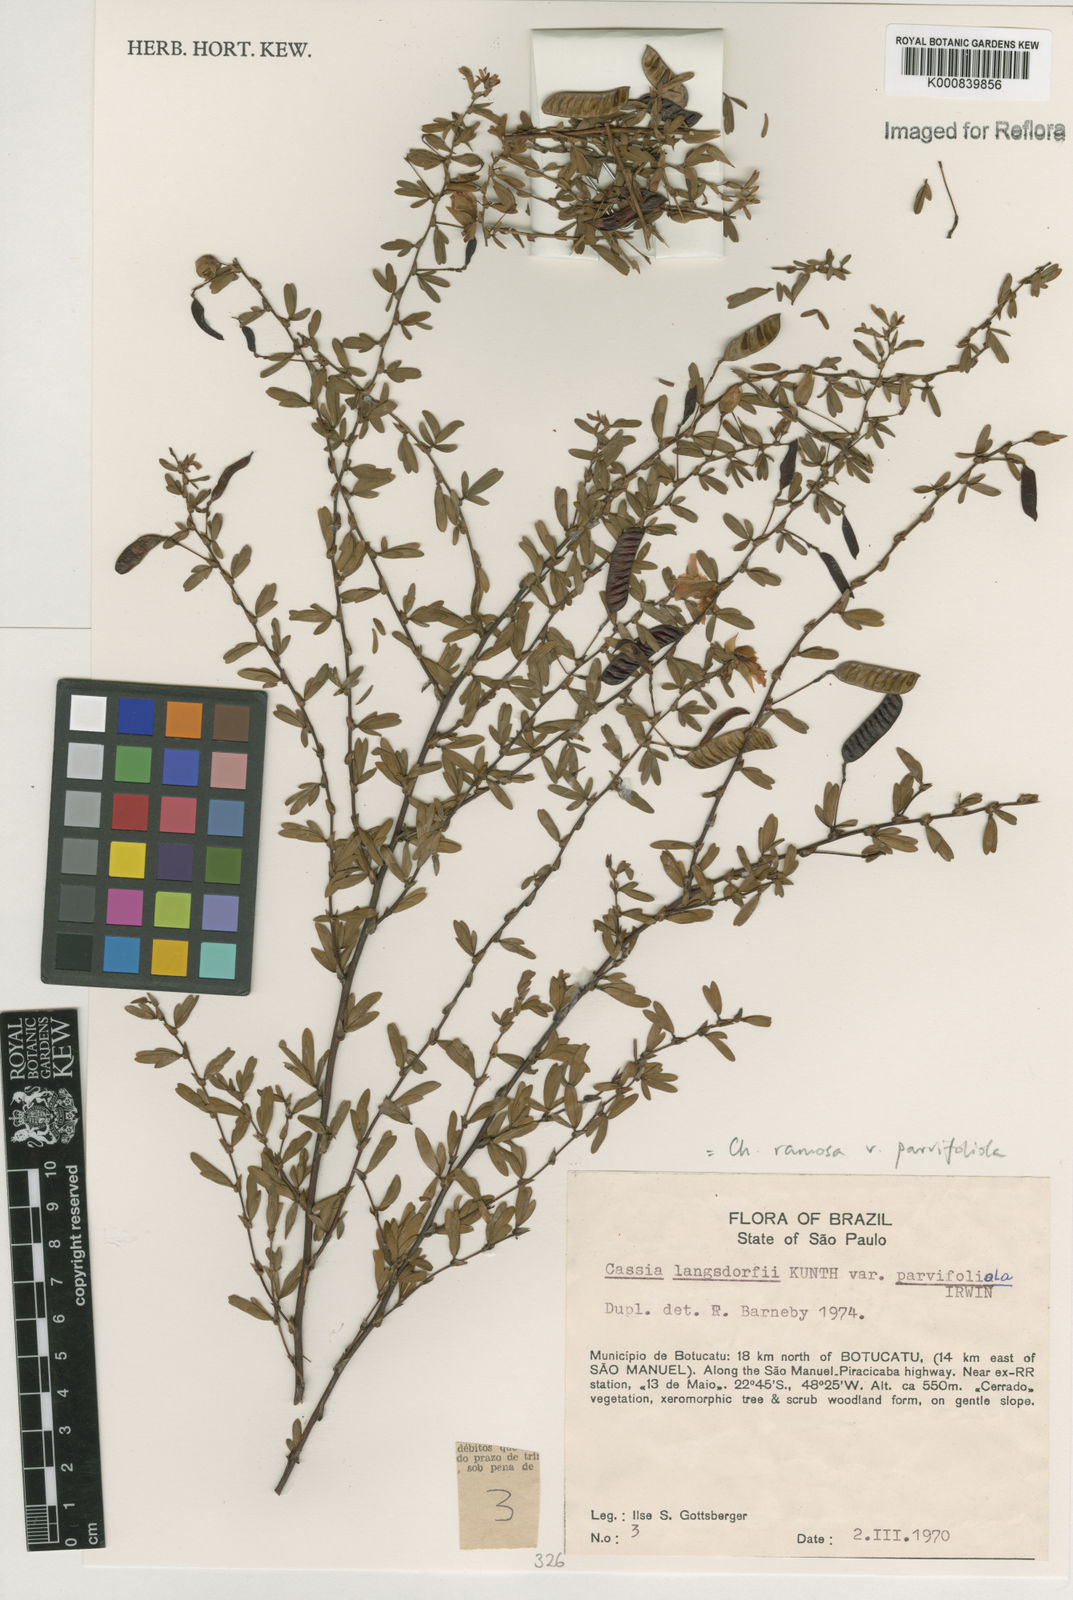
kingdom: Plantae
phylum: Tracheophyta
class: Magnoliopsida
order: Fabales
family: Fabaceae
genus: Chamaecrista
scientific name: Chamaecrista ramosa
